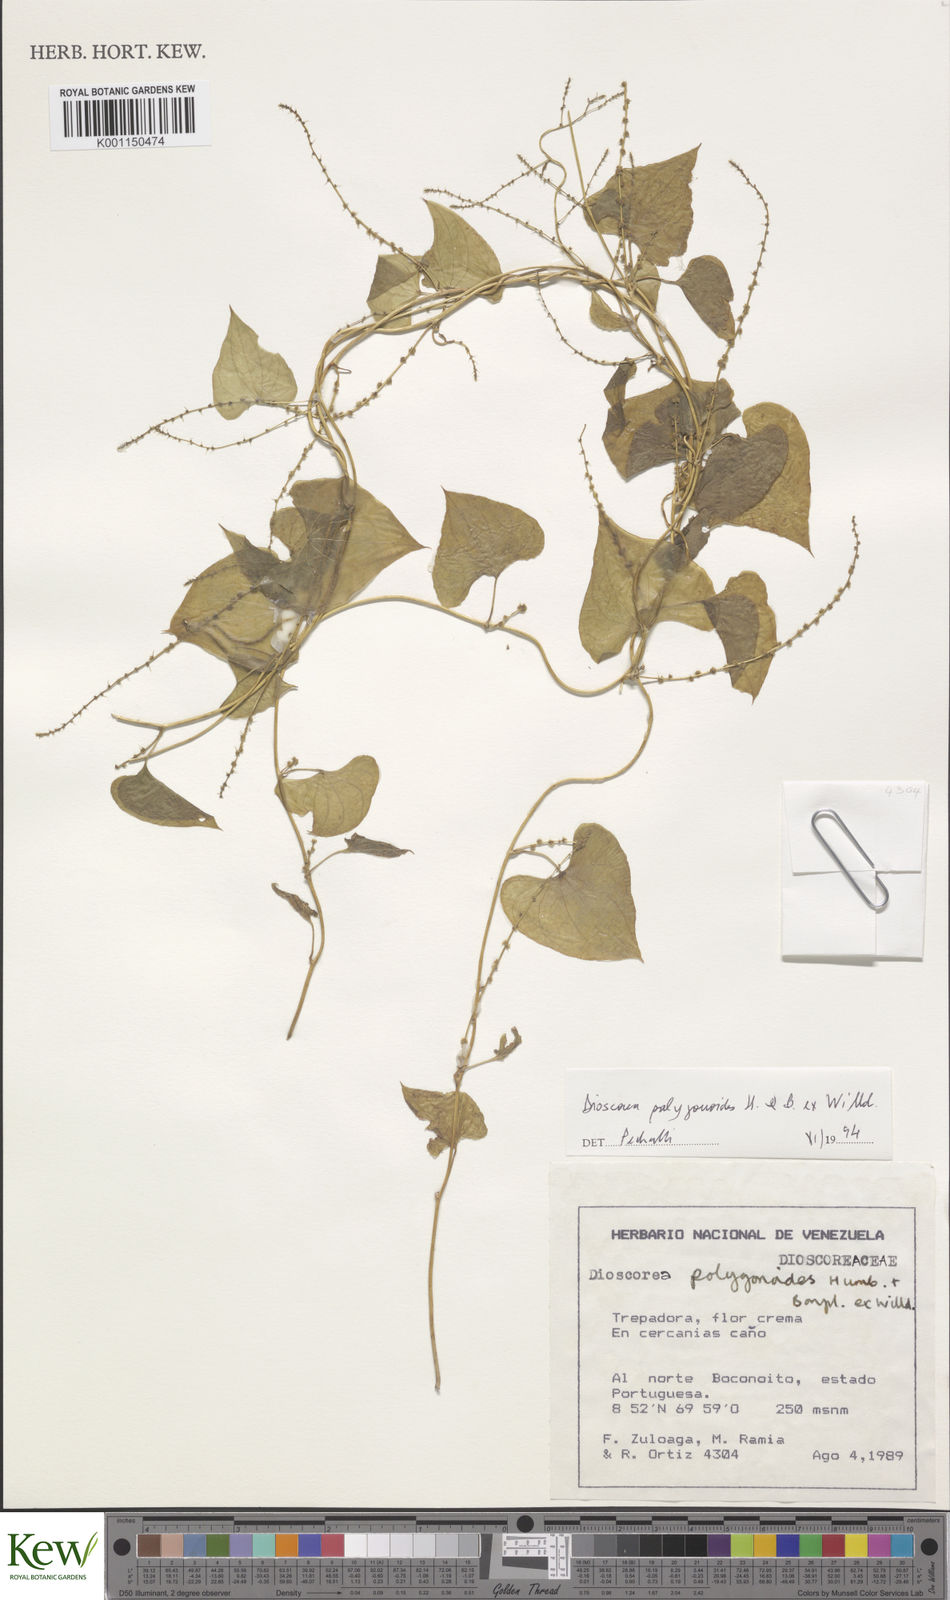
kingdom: Plantae
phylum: Tracheophyta
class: Liliopsida
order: Dioscoreales
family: Dioscoreaceae
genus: Dioscorea
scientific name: Dioscorea polygonoides
